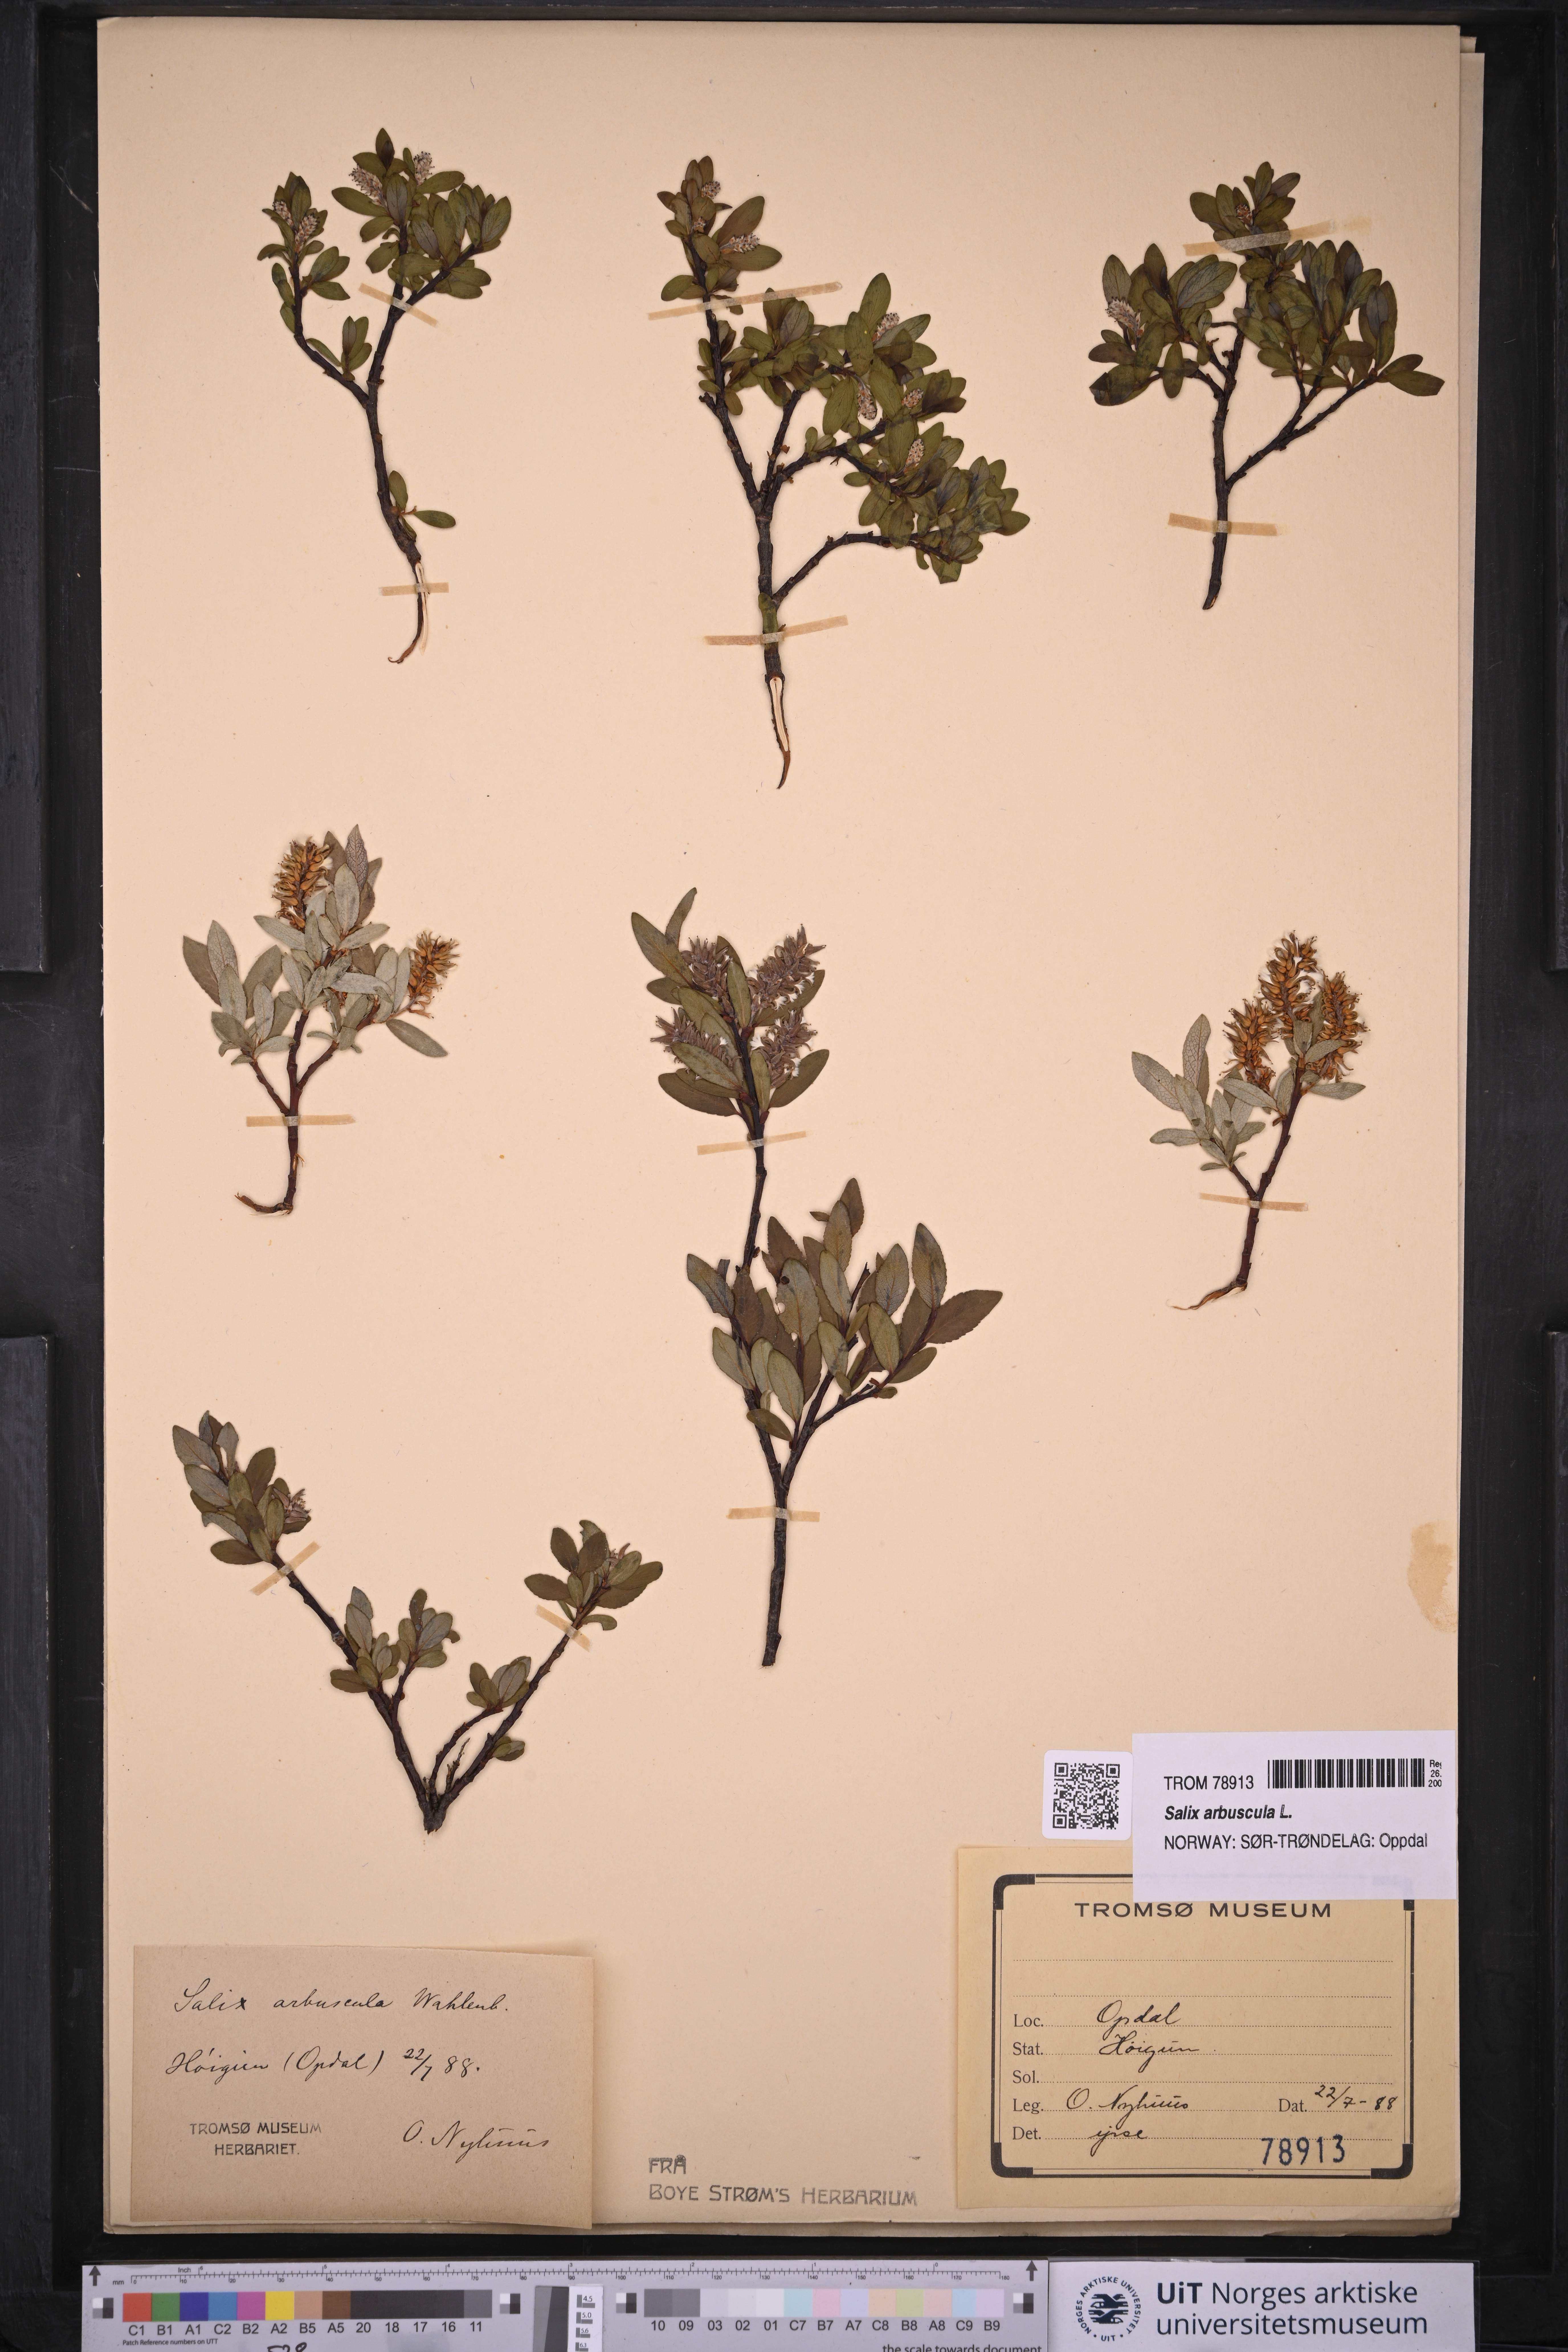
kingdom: Plantae
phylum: Tracheophyta
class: Magnoliopsida
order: Malpighiales
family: Salicaceae
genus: Salix
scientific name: Salix arbuscula
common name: Mountain willow
